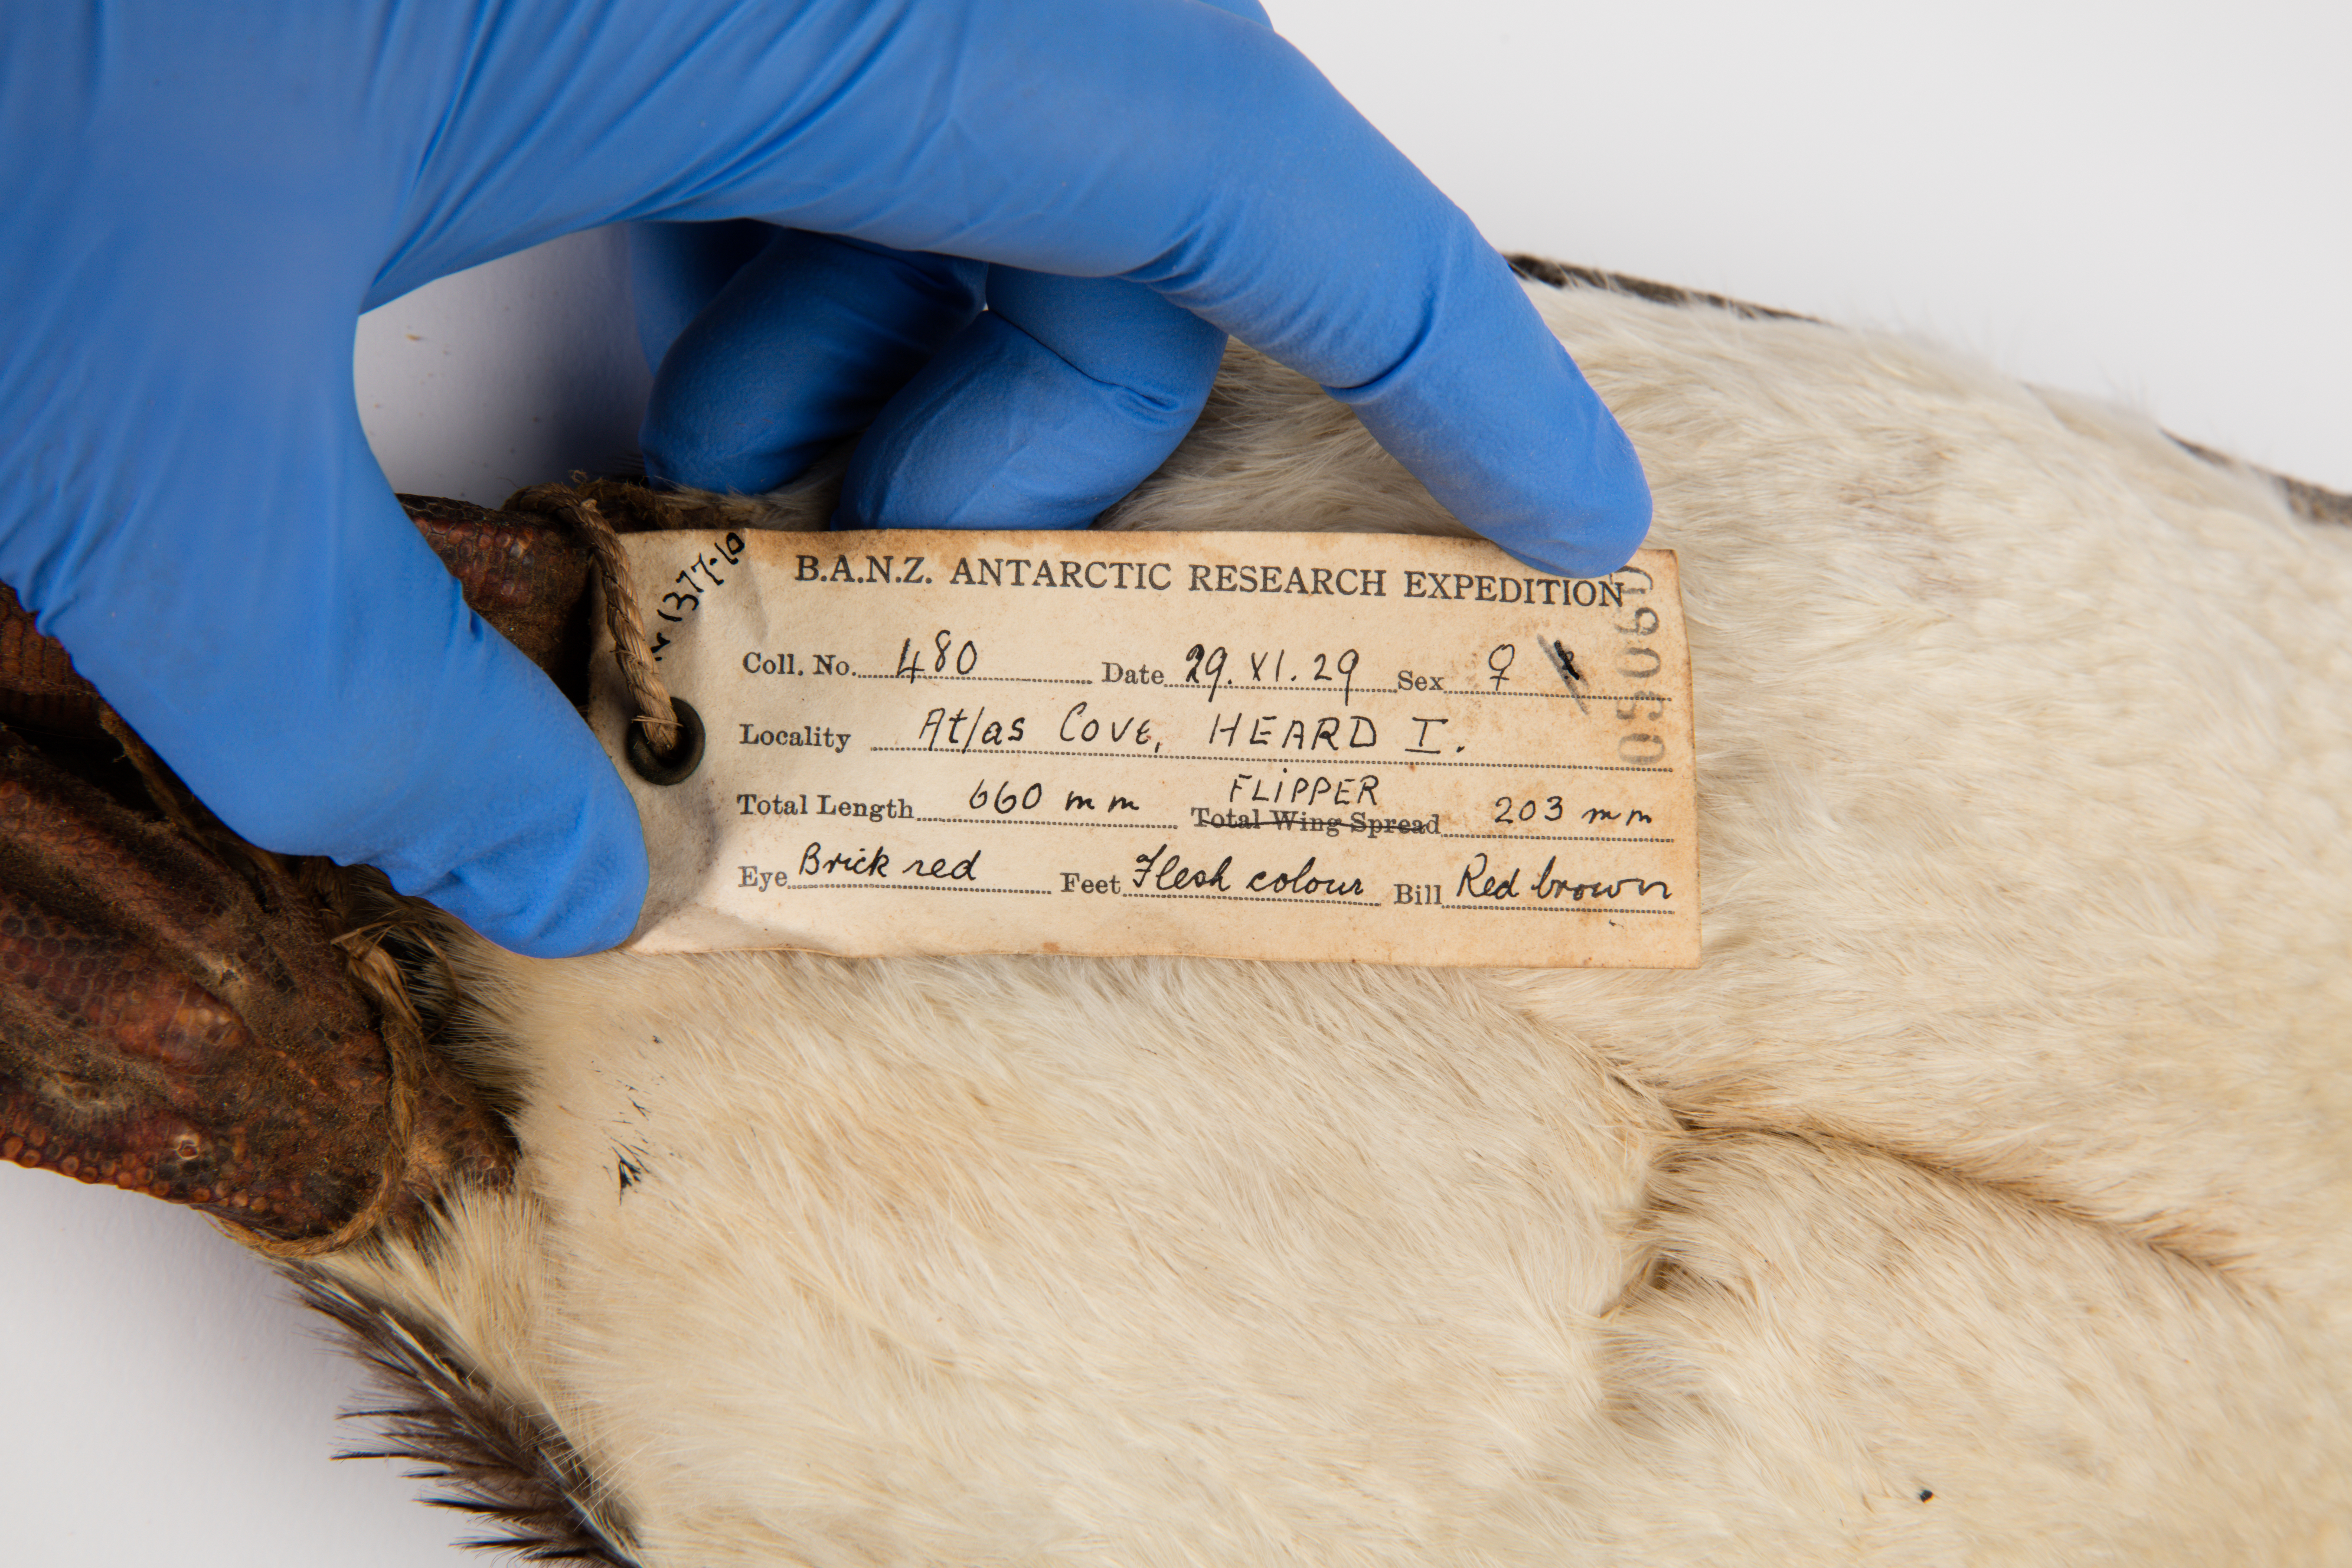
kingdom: Animalia
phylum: Chordata
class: Aves
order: Sphenisciformes
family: Spheniscidae
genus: Eudyptes
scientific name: Eudyptes chrysolophus
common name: Macaroni penguin
